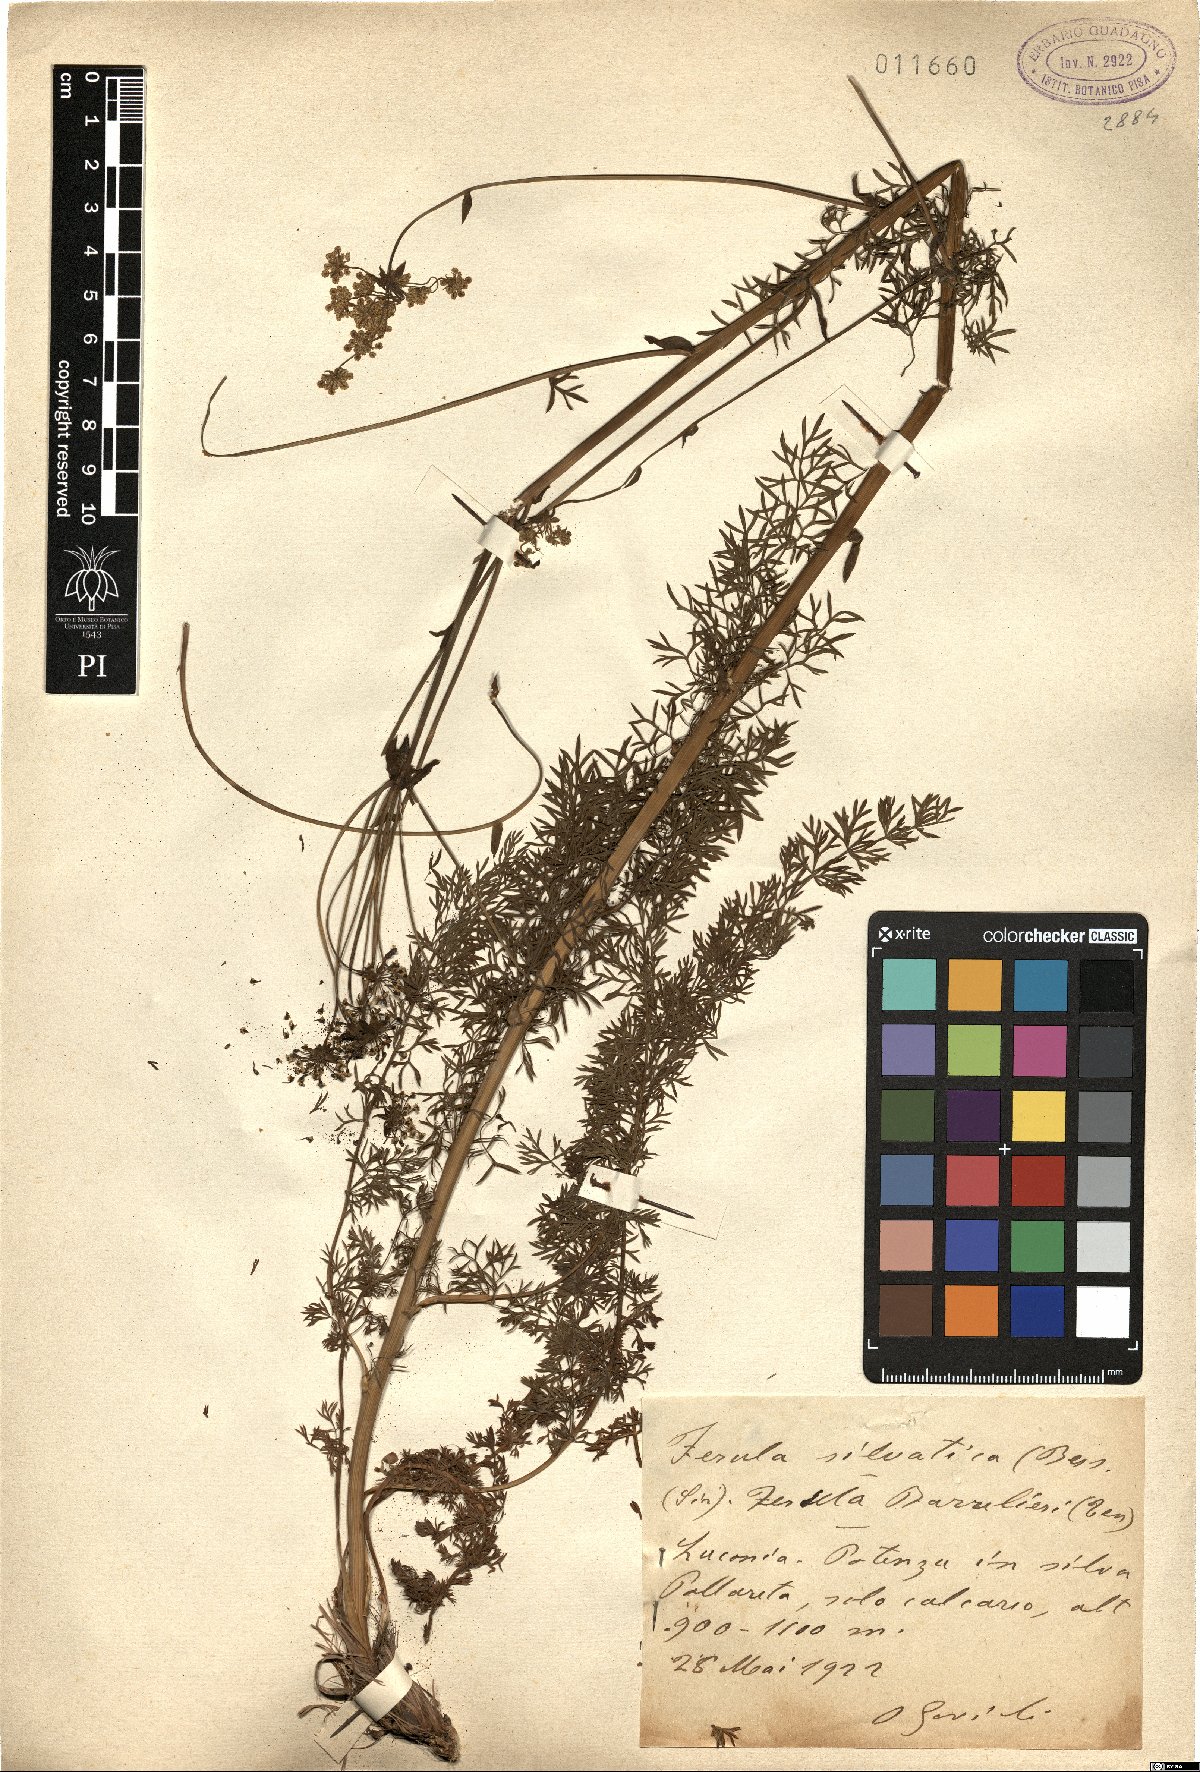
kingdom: Plantae
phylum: Tracheophyta
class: Magnoliopsida
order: Apiales
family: Apiaceae
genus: Ferulago
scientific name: Ferulago sylvatica
